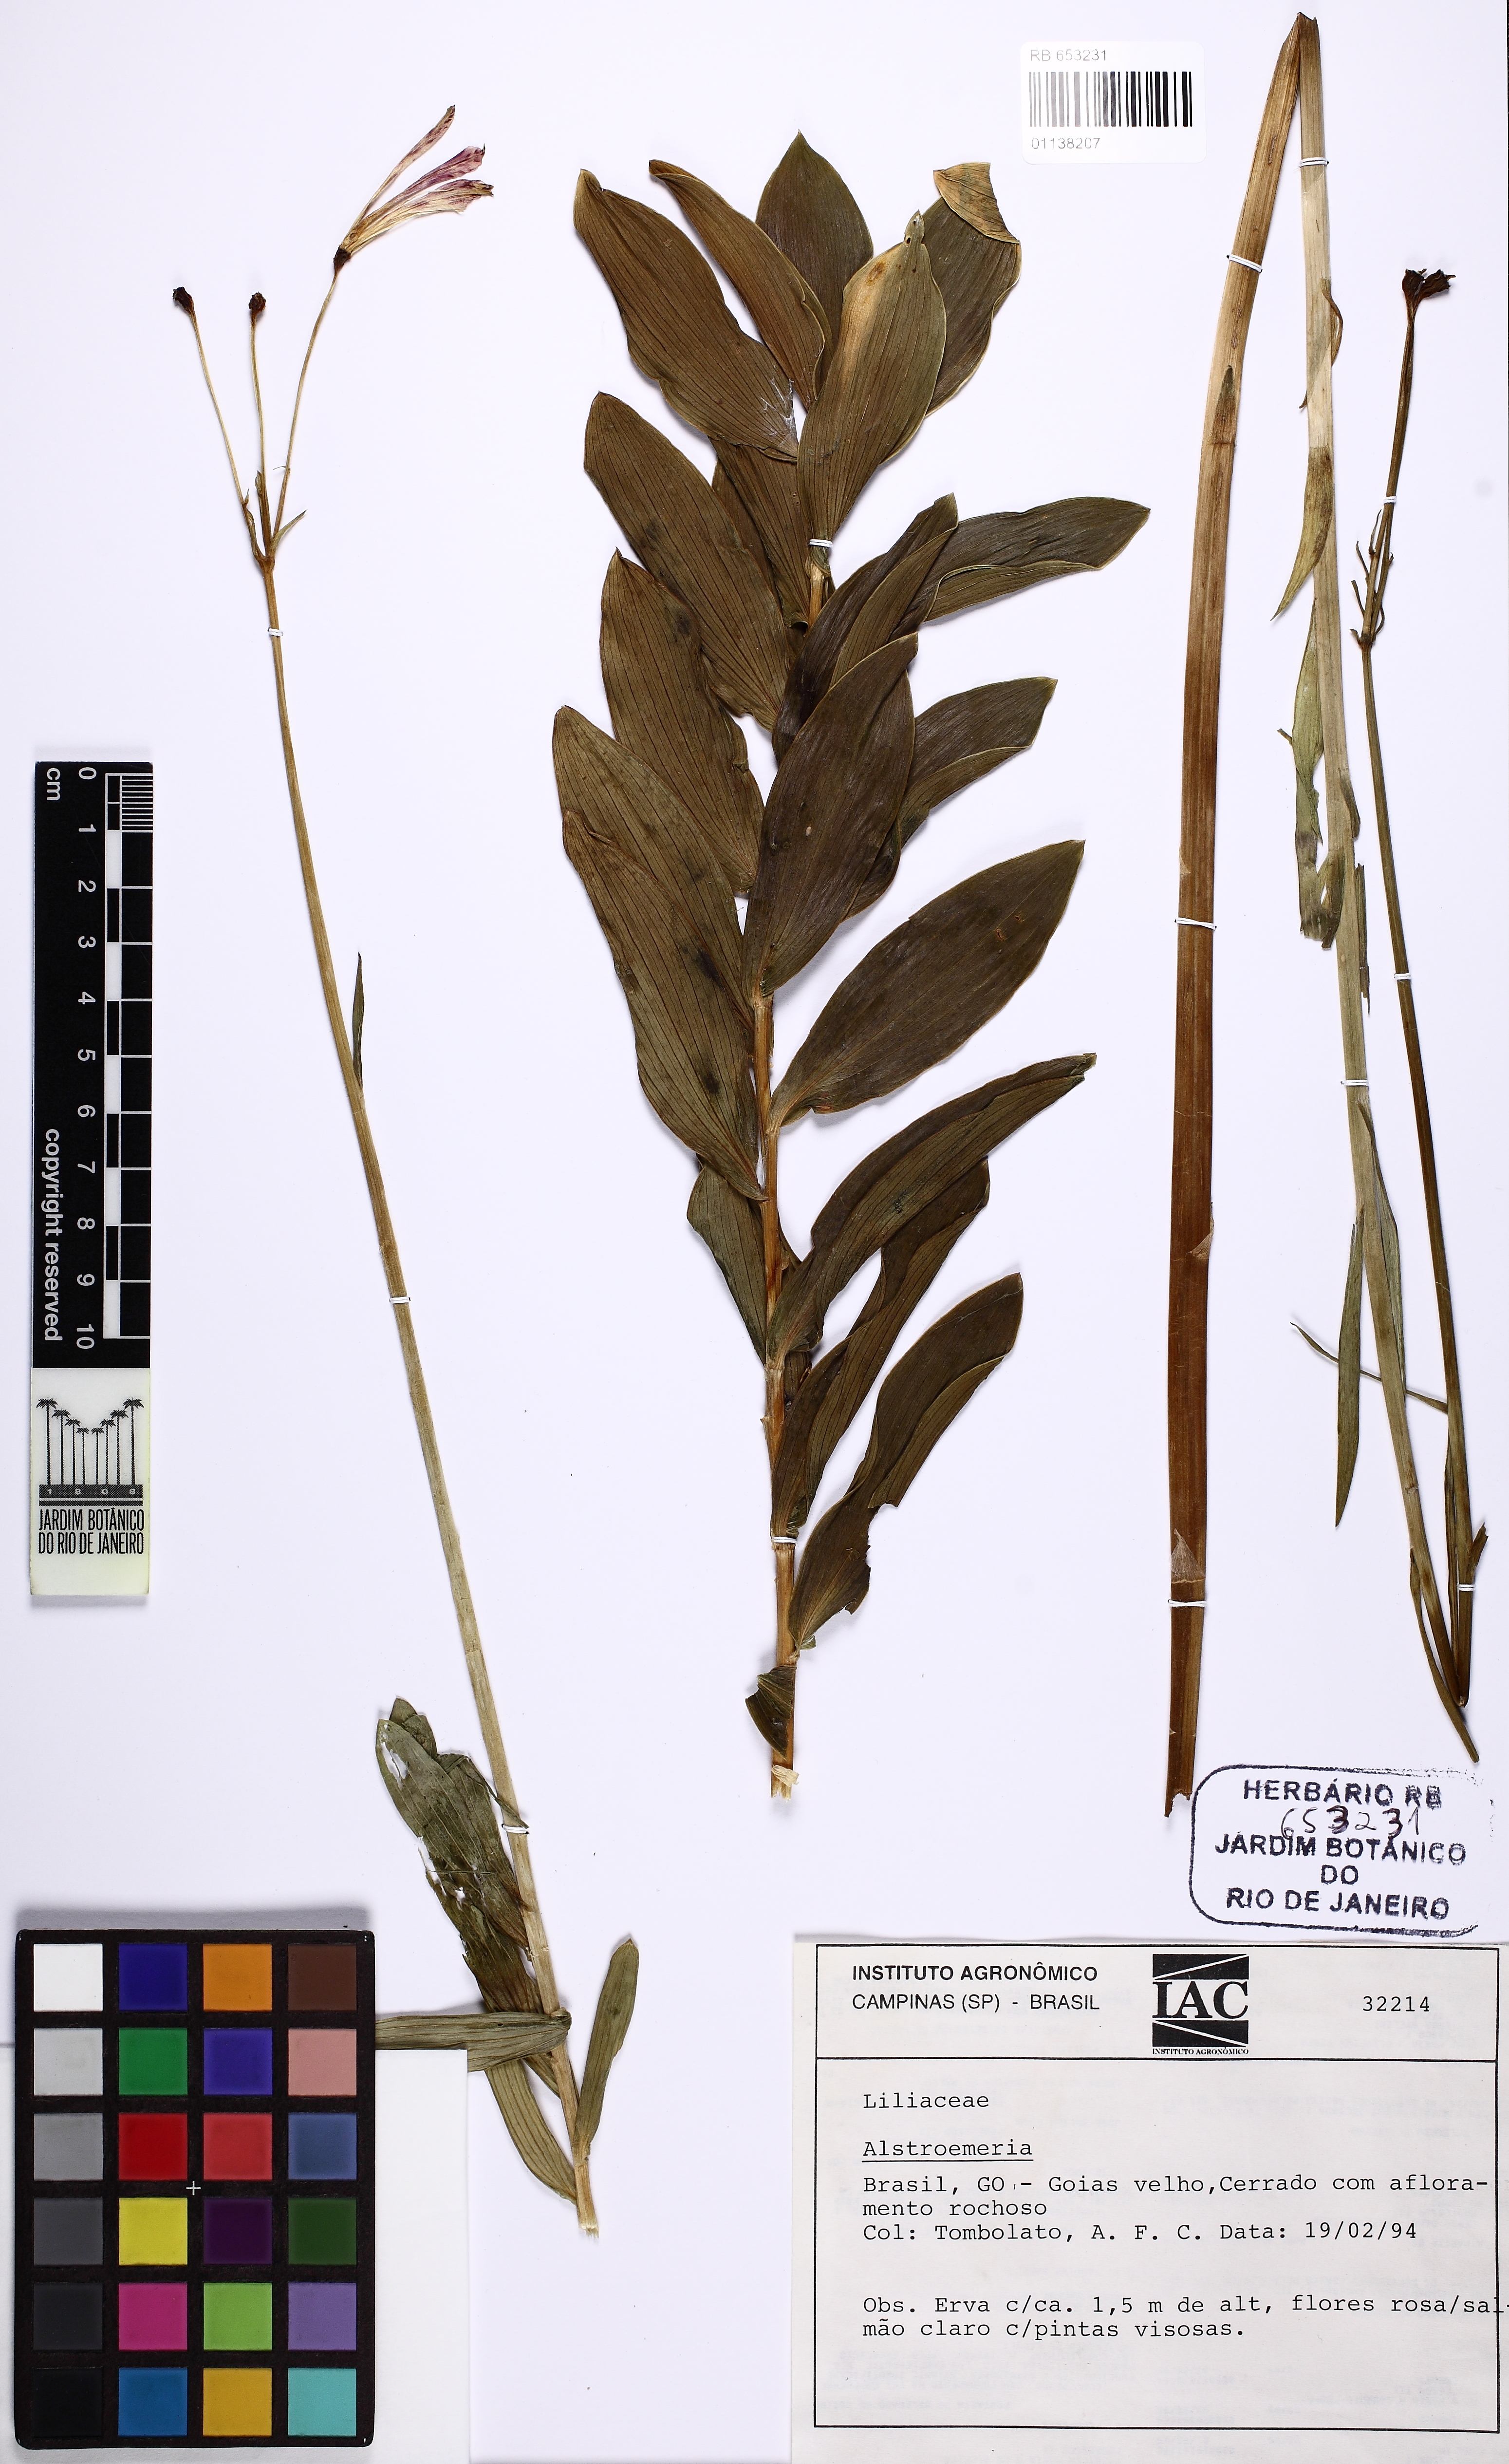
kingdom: Plantae
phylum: Tracheophyta
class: Liliopsida
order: Liliales
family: Alstroemeriaceae
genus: Alstroemeria
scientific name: Alstroemeria
